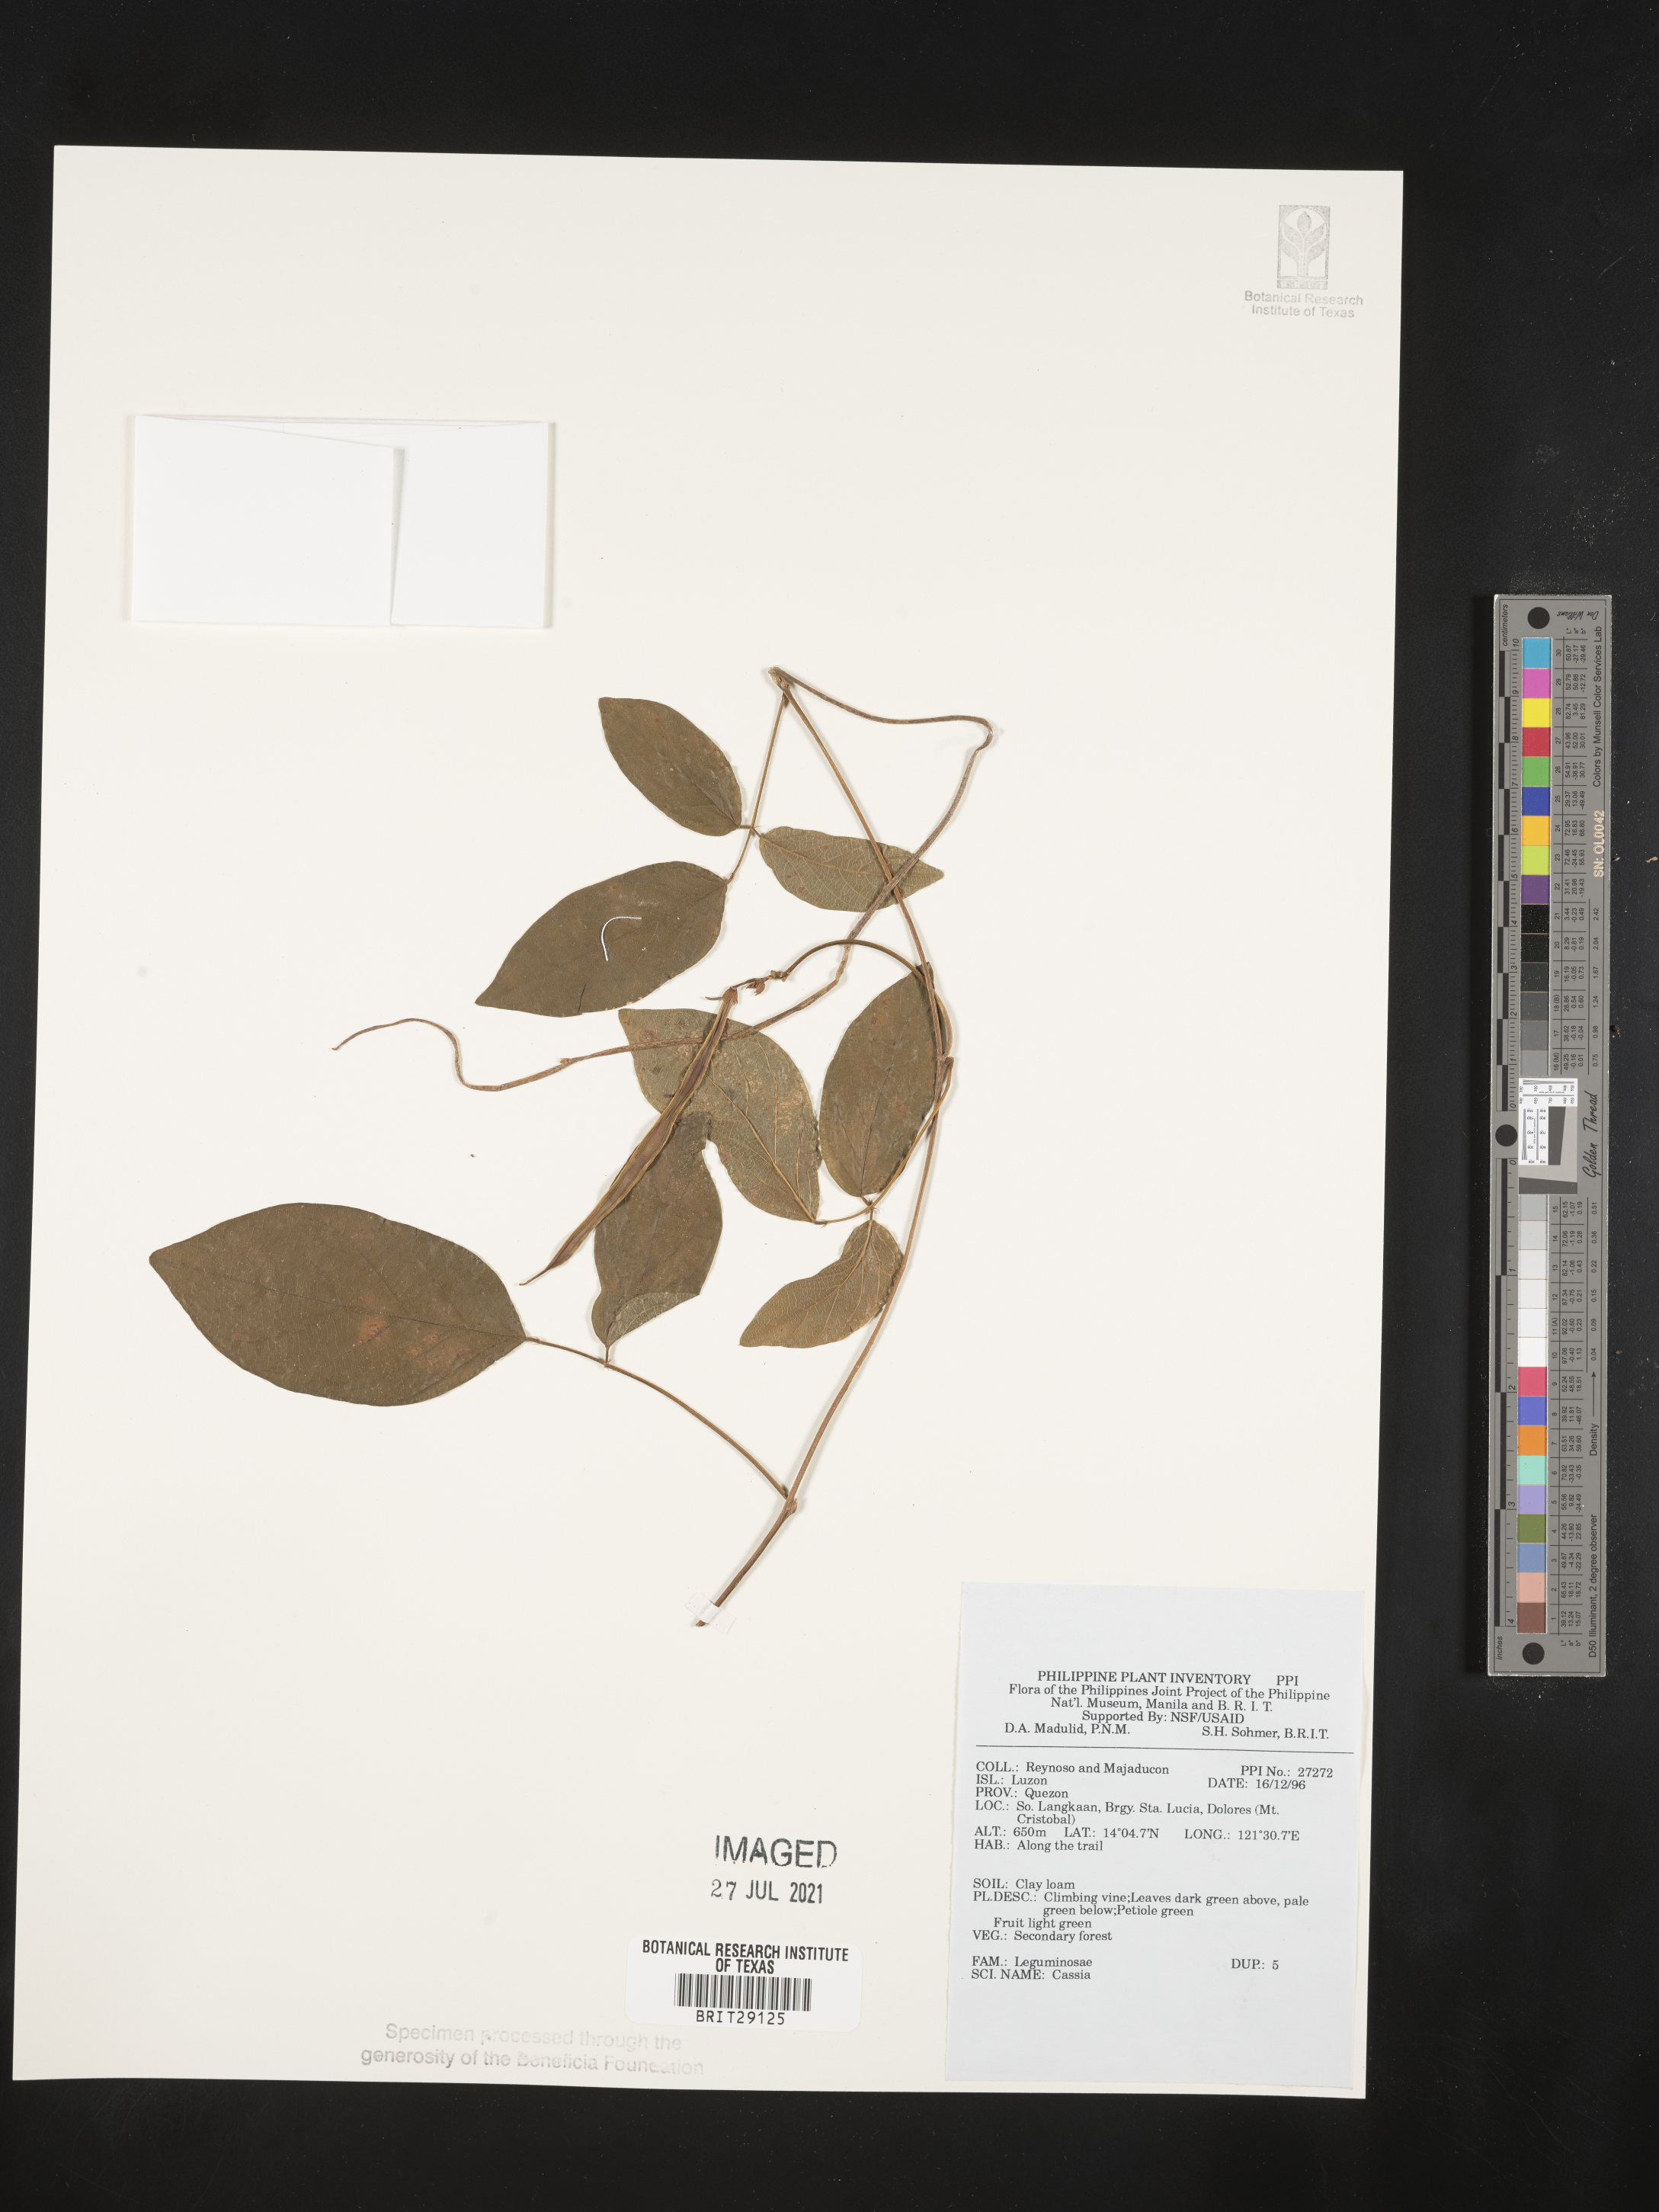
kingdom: Plantae
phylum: Tracheophyta
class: Magnoliopsida
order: Fabales
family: Fabaceae
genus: Cassia
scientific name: Cassia
